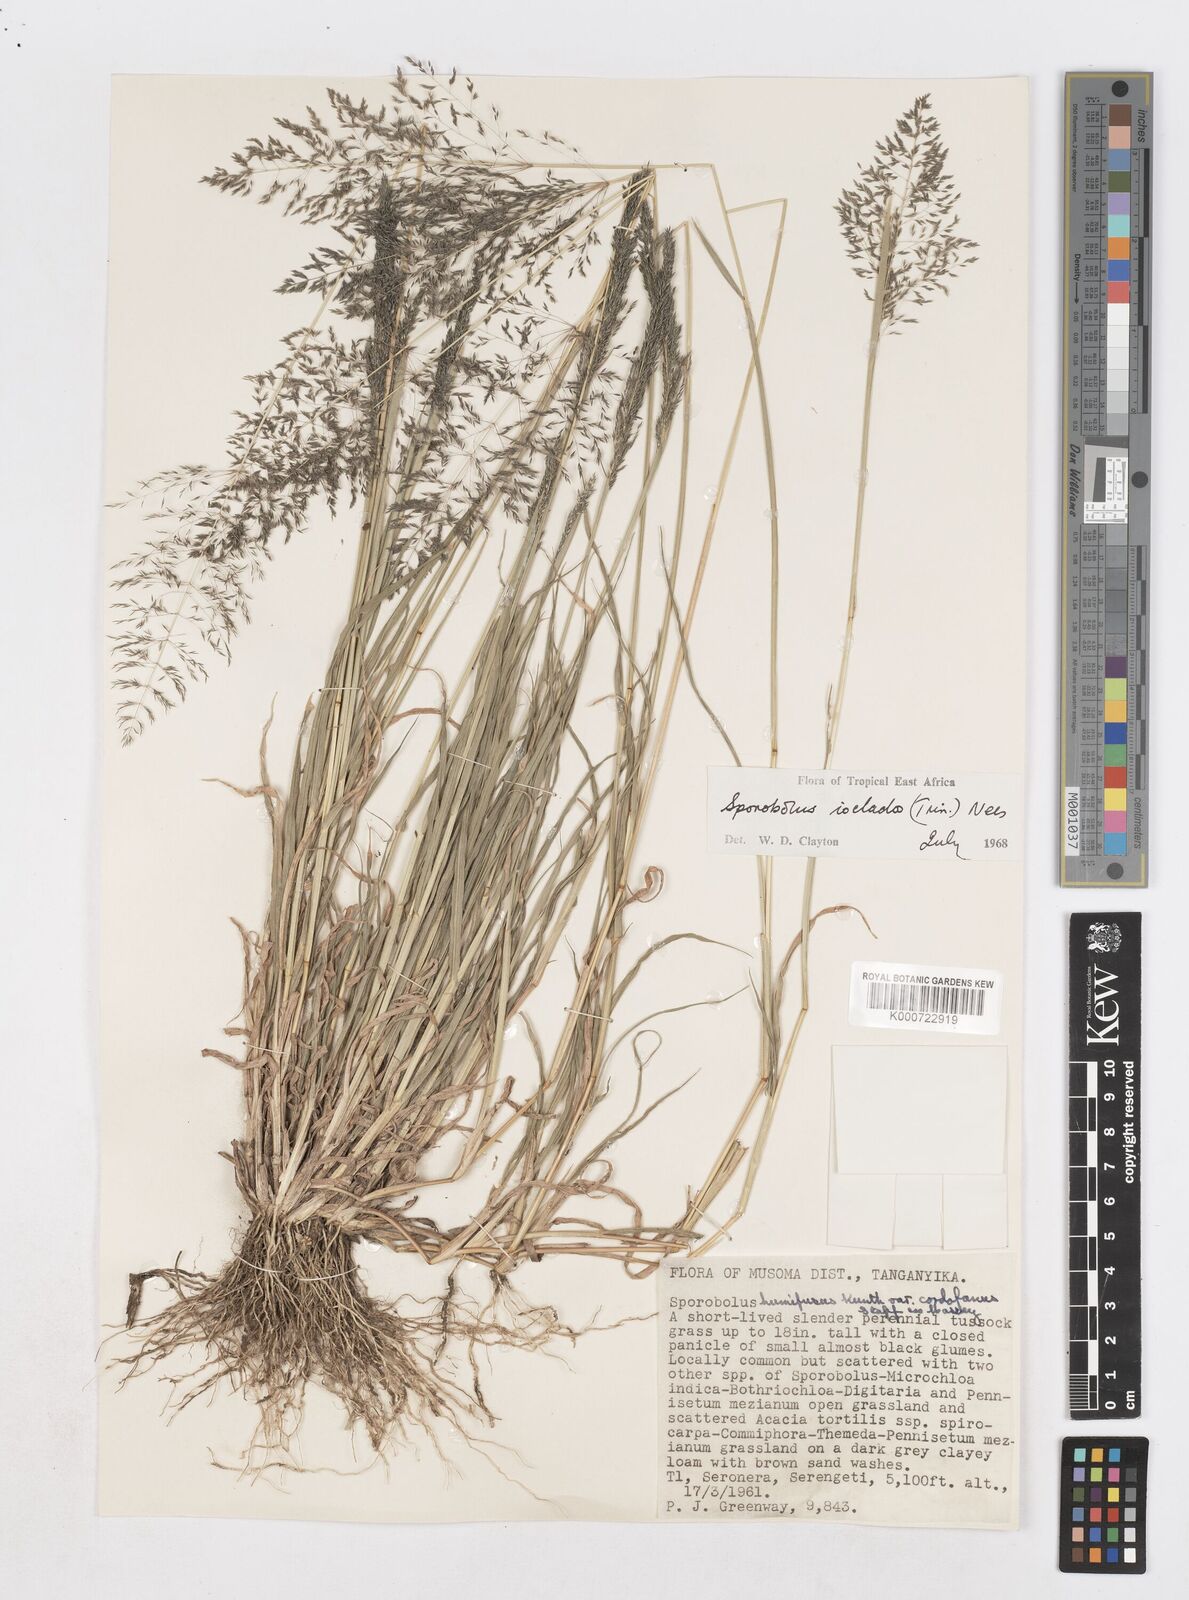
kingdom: Plantae
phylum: Tracheophyta
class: Liliopsida
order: Poales
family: Poaceae
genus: Sporobolus
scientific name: Sporobolus ioclados
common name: Pan dropseed
